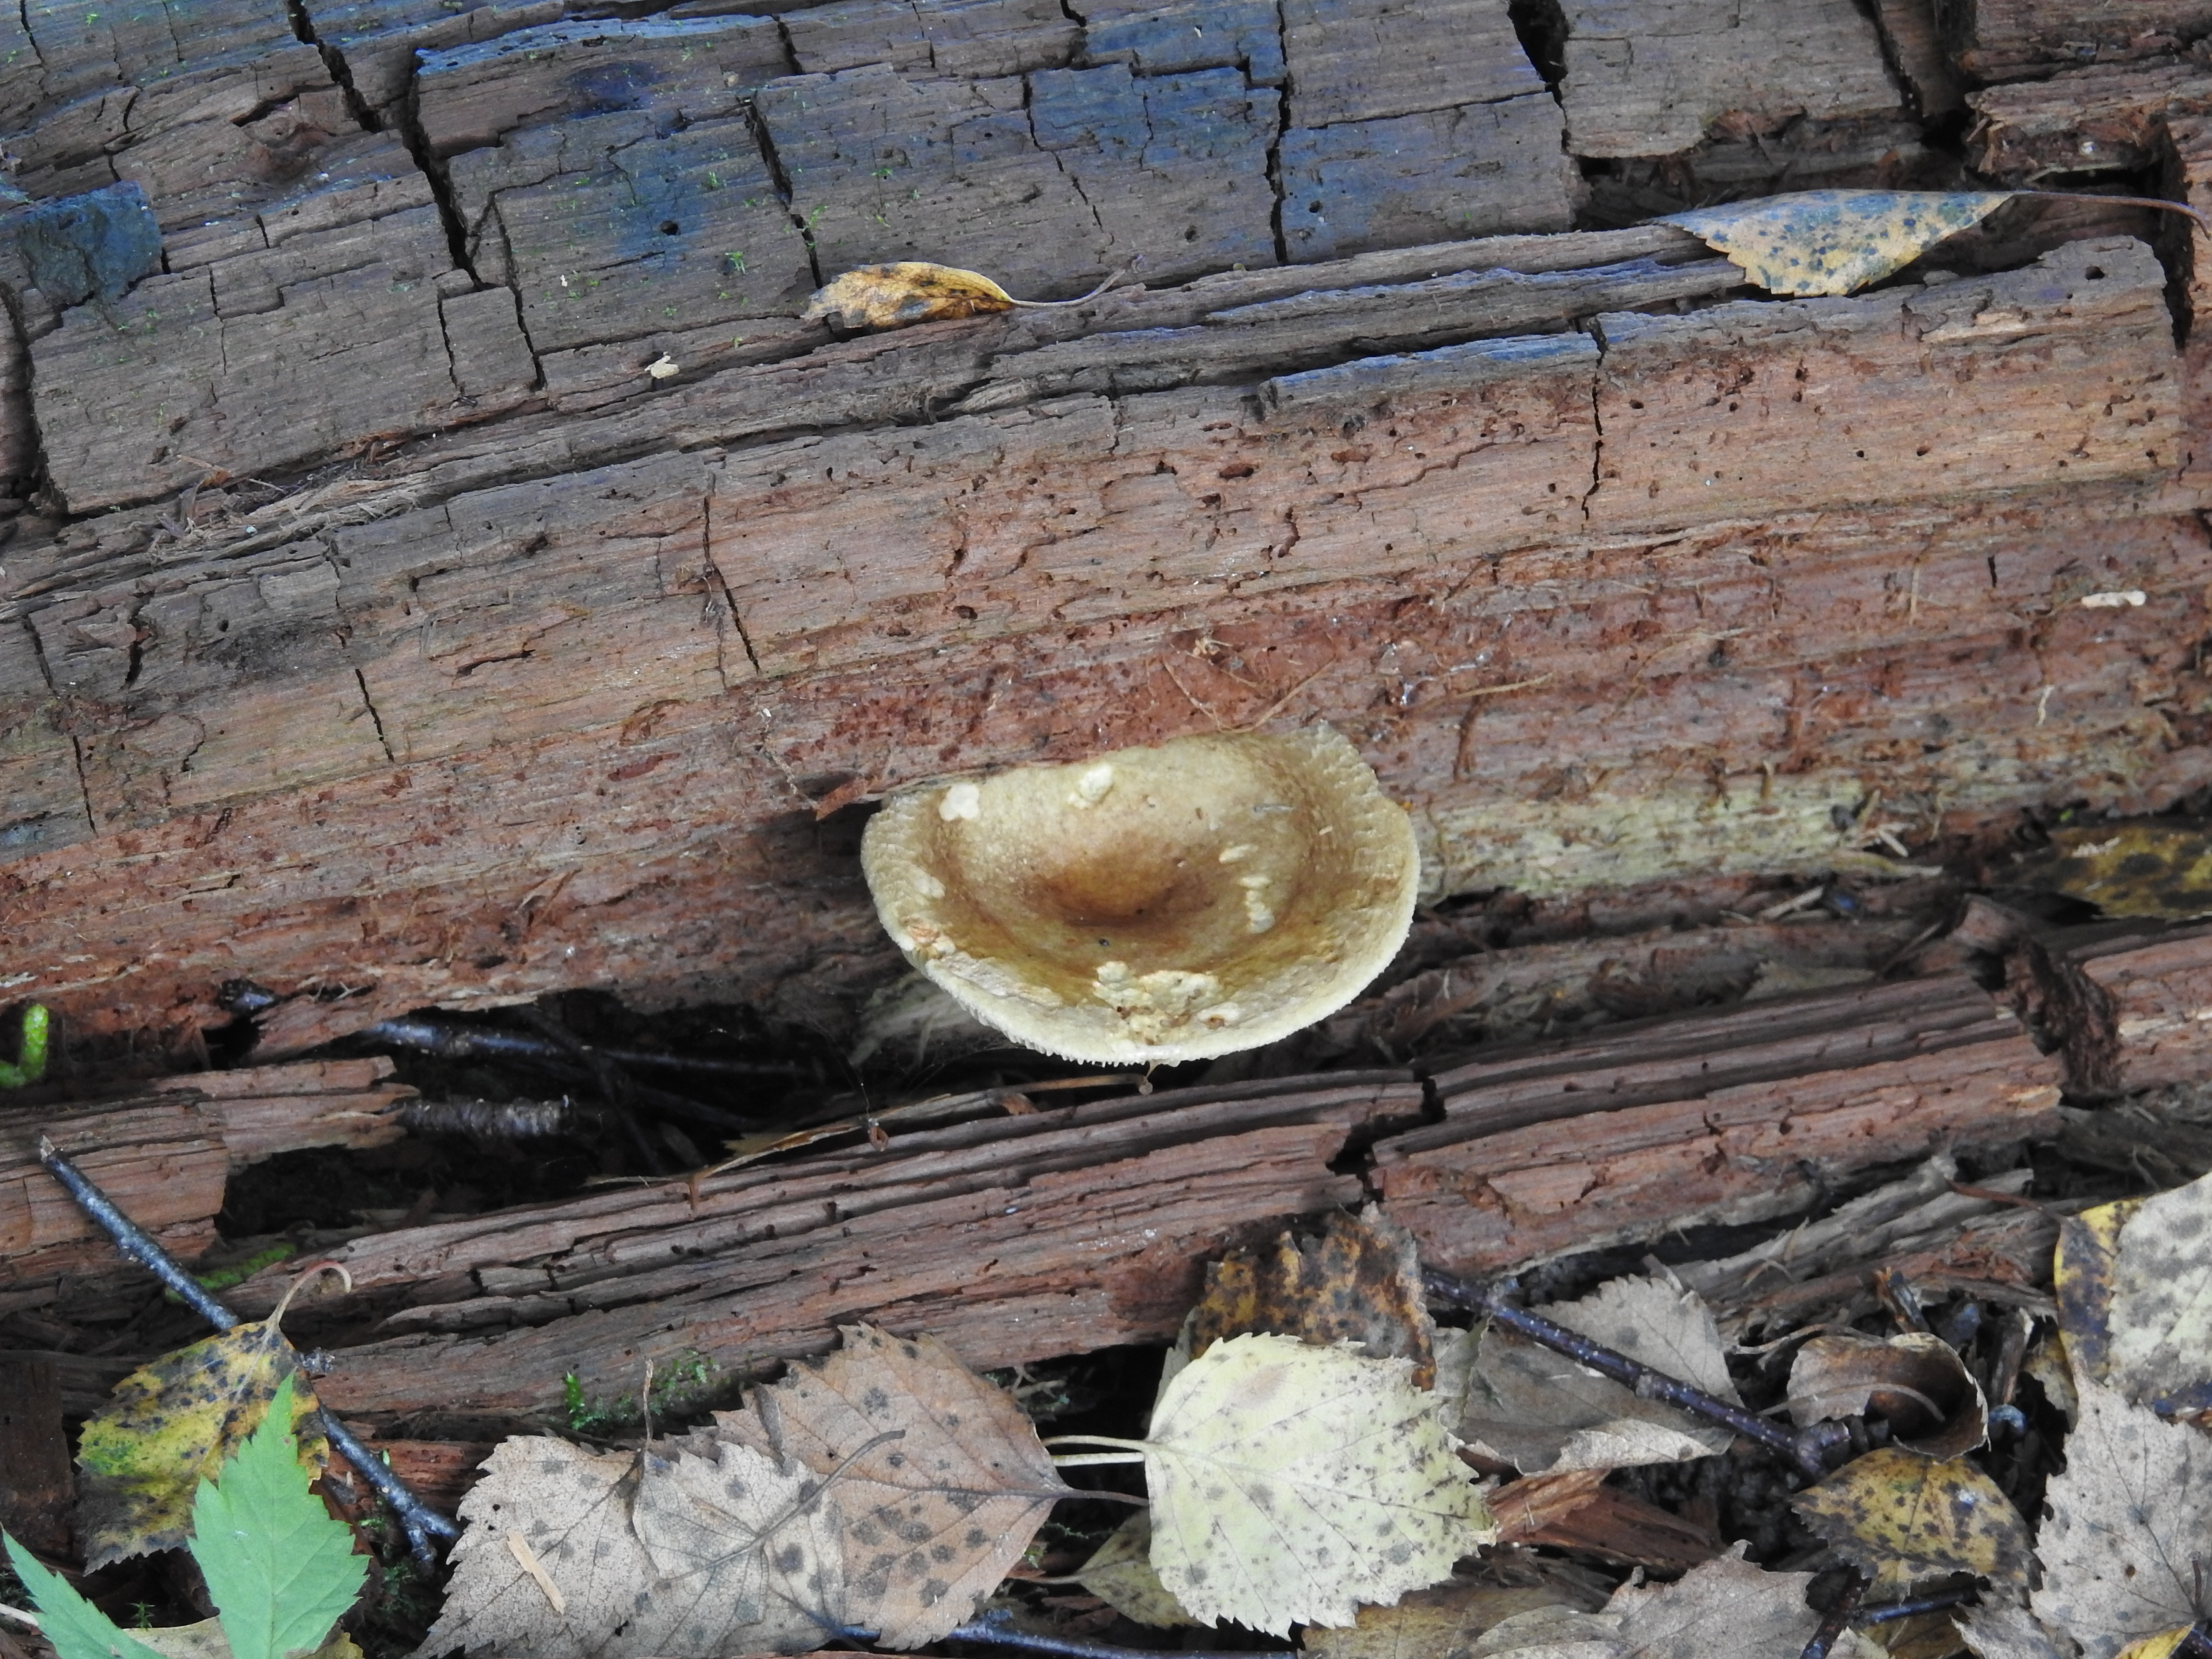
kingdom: Fungi
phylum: Basidiomycota
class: Agaricomycetes
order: Boletales
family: Paxillaceae
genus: Paxillus
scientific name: Paxillus involutus
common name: Brown roll rim
